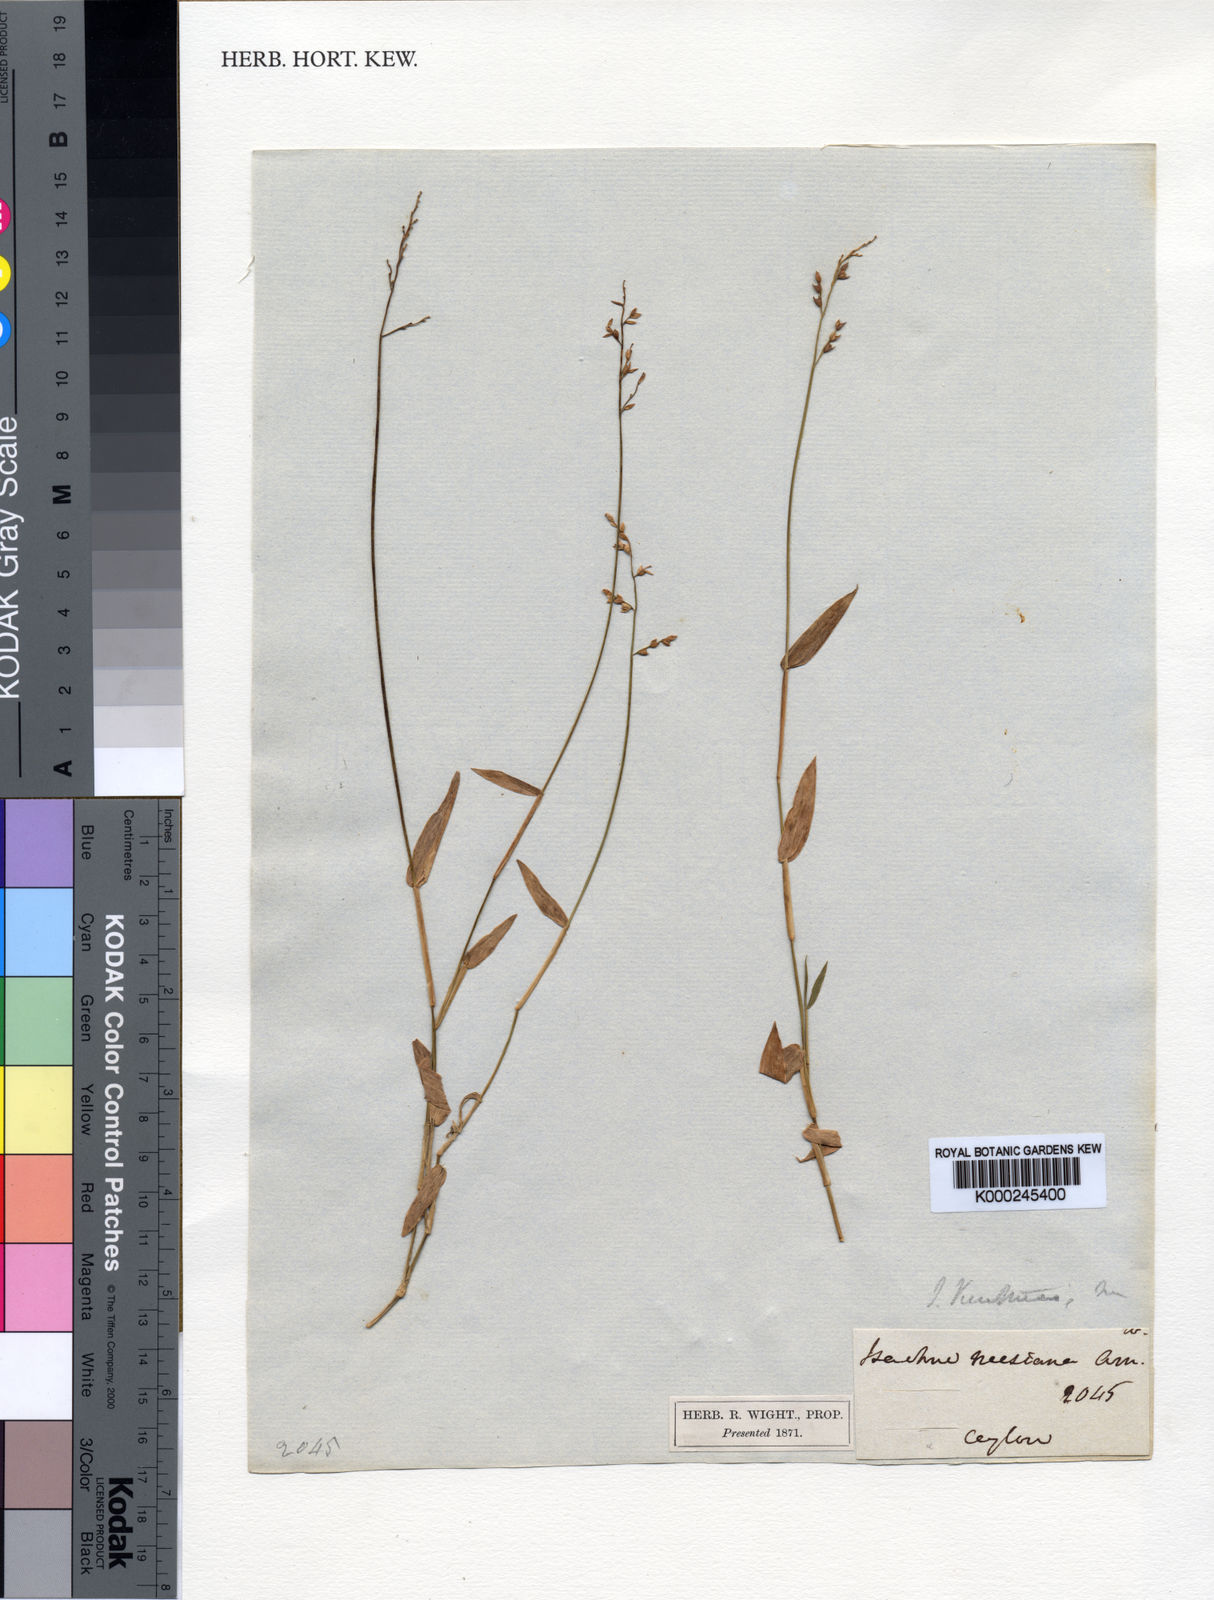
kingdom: Plantae
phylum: Tracheophyta
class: Liliopsida
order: Poales
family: Poaceae
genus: Isachne
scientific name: Isachne kunthiana
